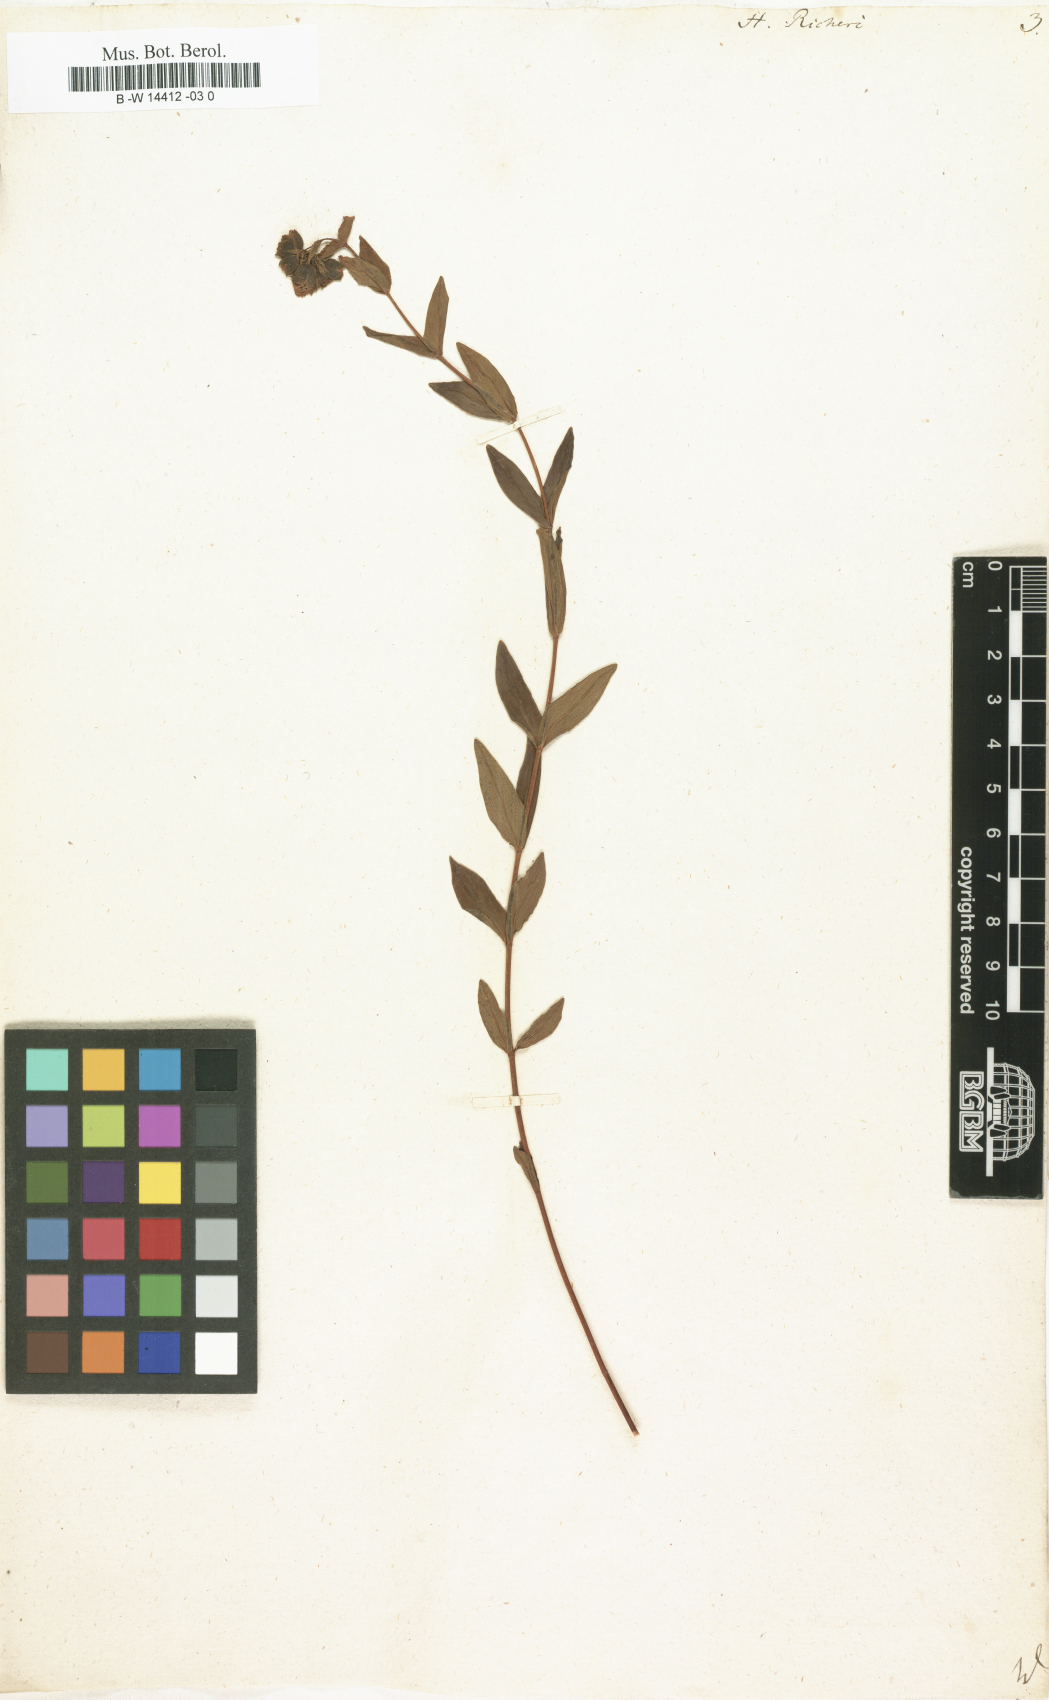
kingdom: Plantae
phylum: Tracheophyta
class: Magnoliopsida
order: Malpighiales
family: Hypericaceae
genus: Hypericum
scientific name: Hypericum richeri
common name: Alpine st john's-wort
